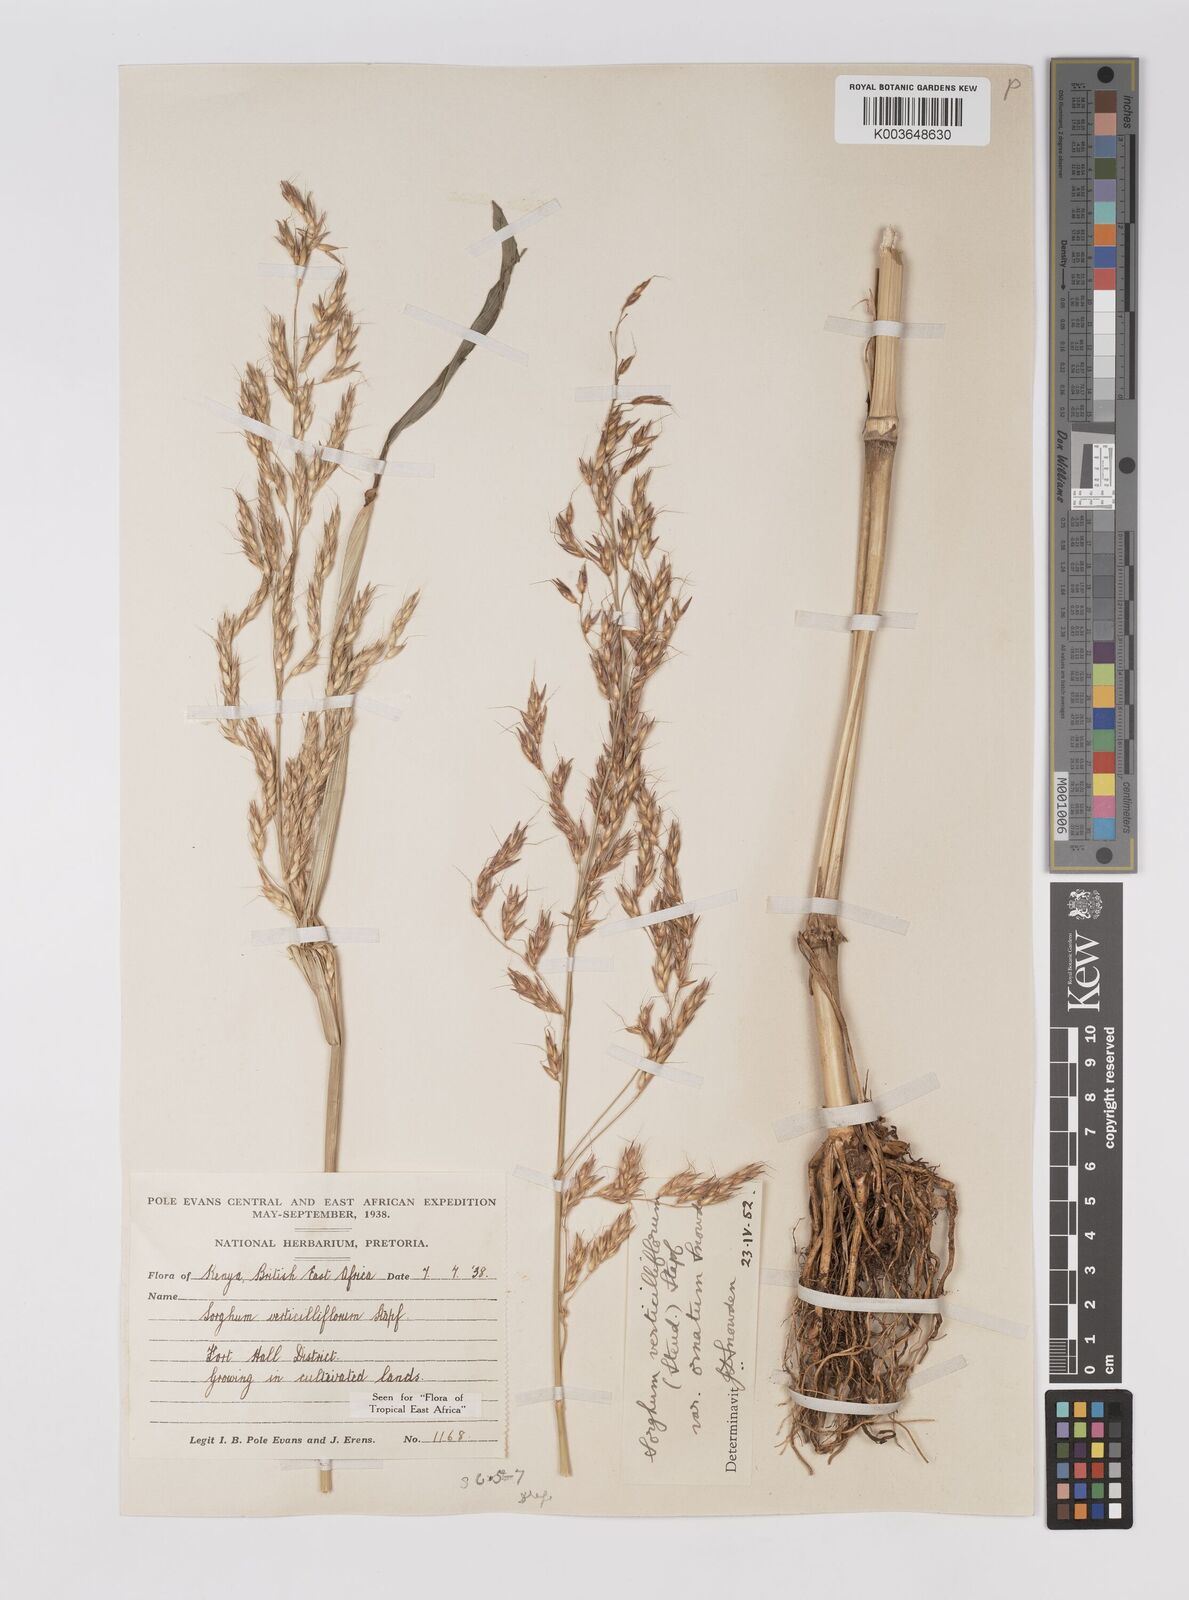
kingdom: Plantae
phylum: Tracheophyta
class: Liliopsida
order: Poales
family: Poaceae
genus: Sorghum
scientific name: Sorghum arundinaceum
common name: Sorghum
